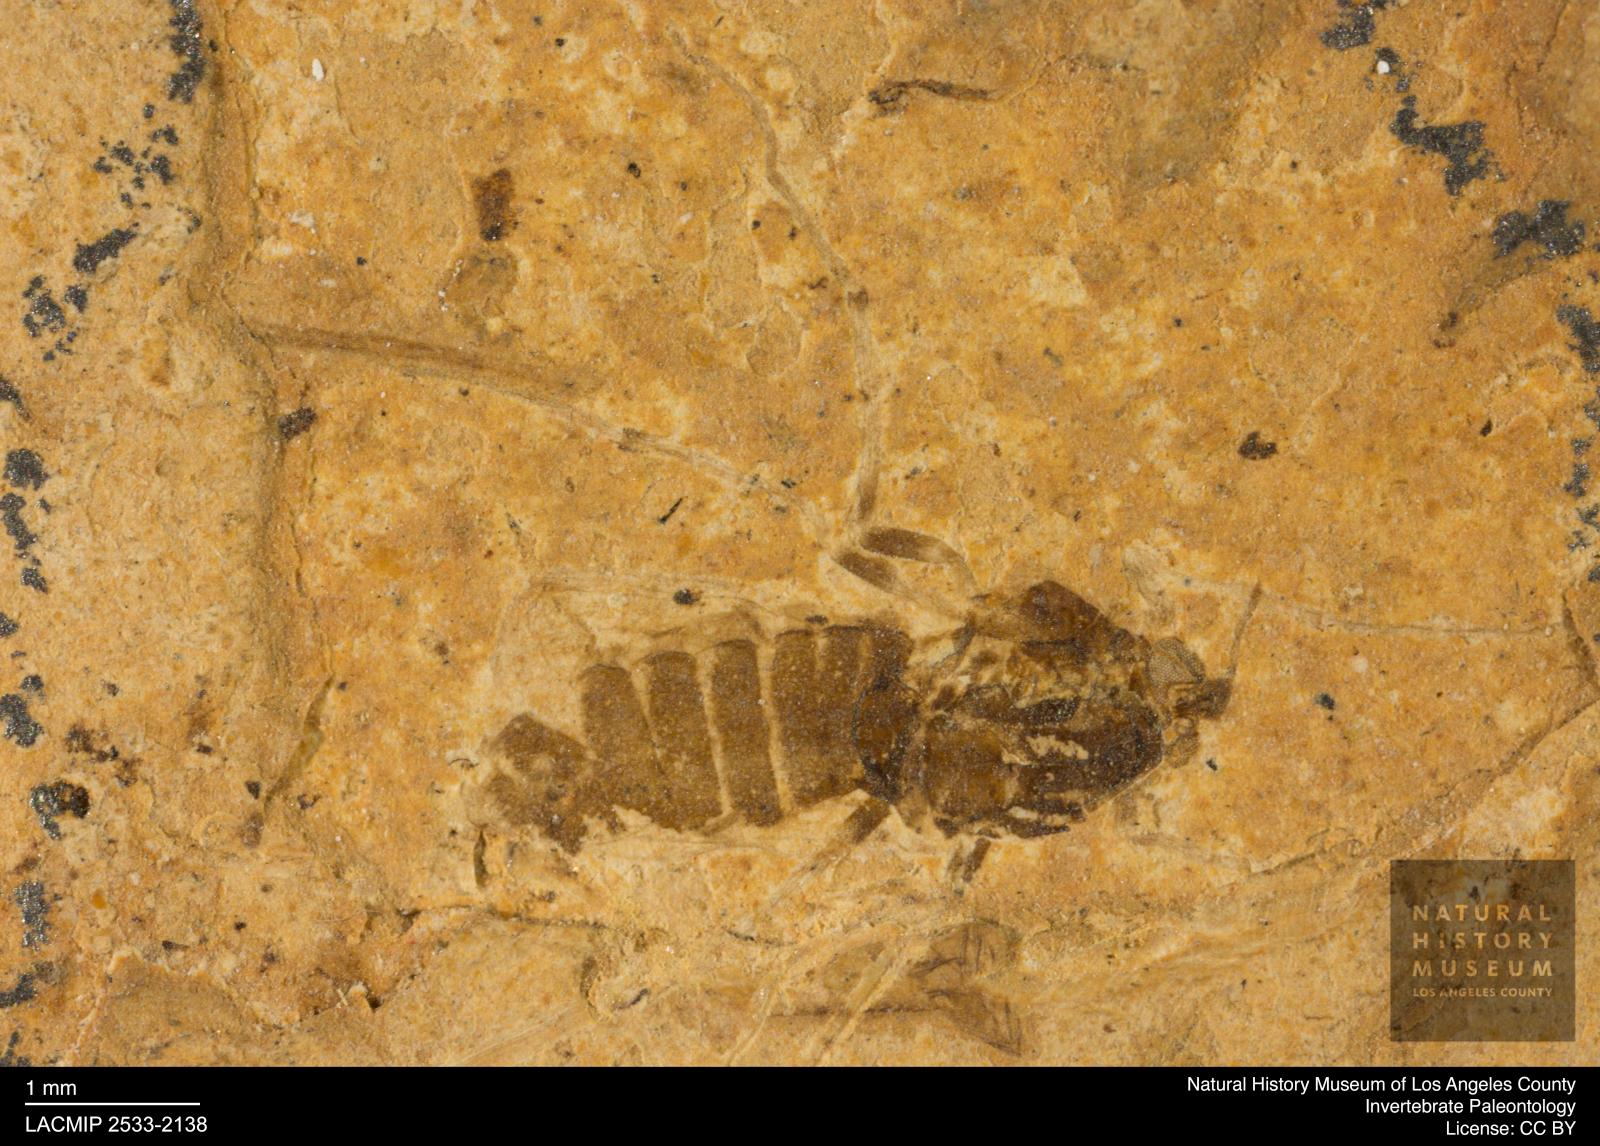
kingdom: Animalia
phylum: Arthropoda
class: Insecta
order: Diptera
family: Chironomidae
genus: Tanypus
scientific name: Tanypus dorminans
